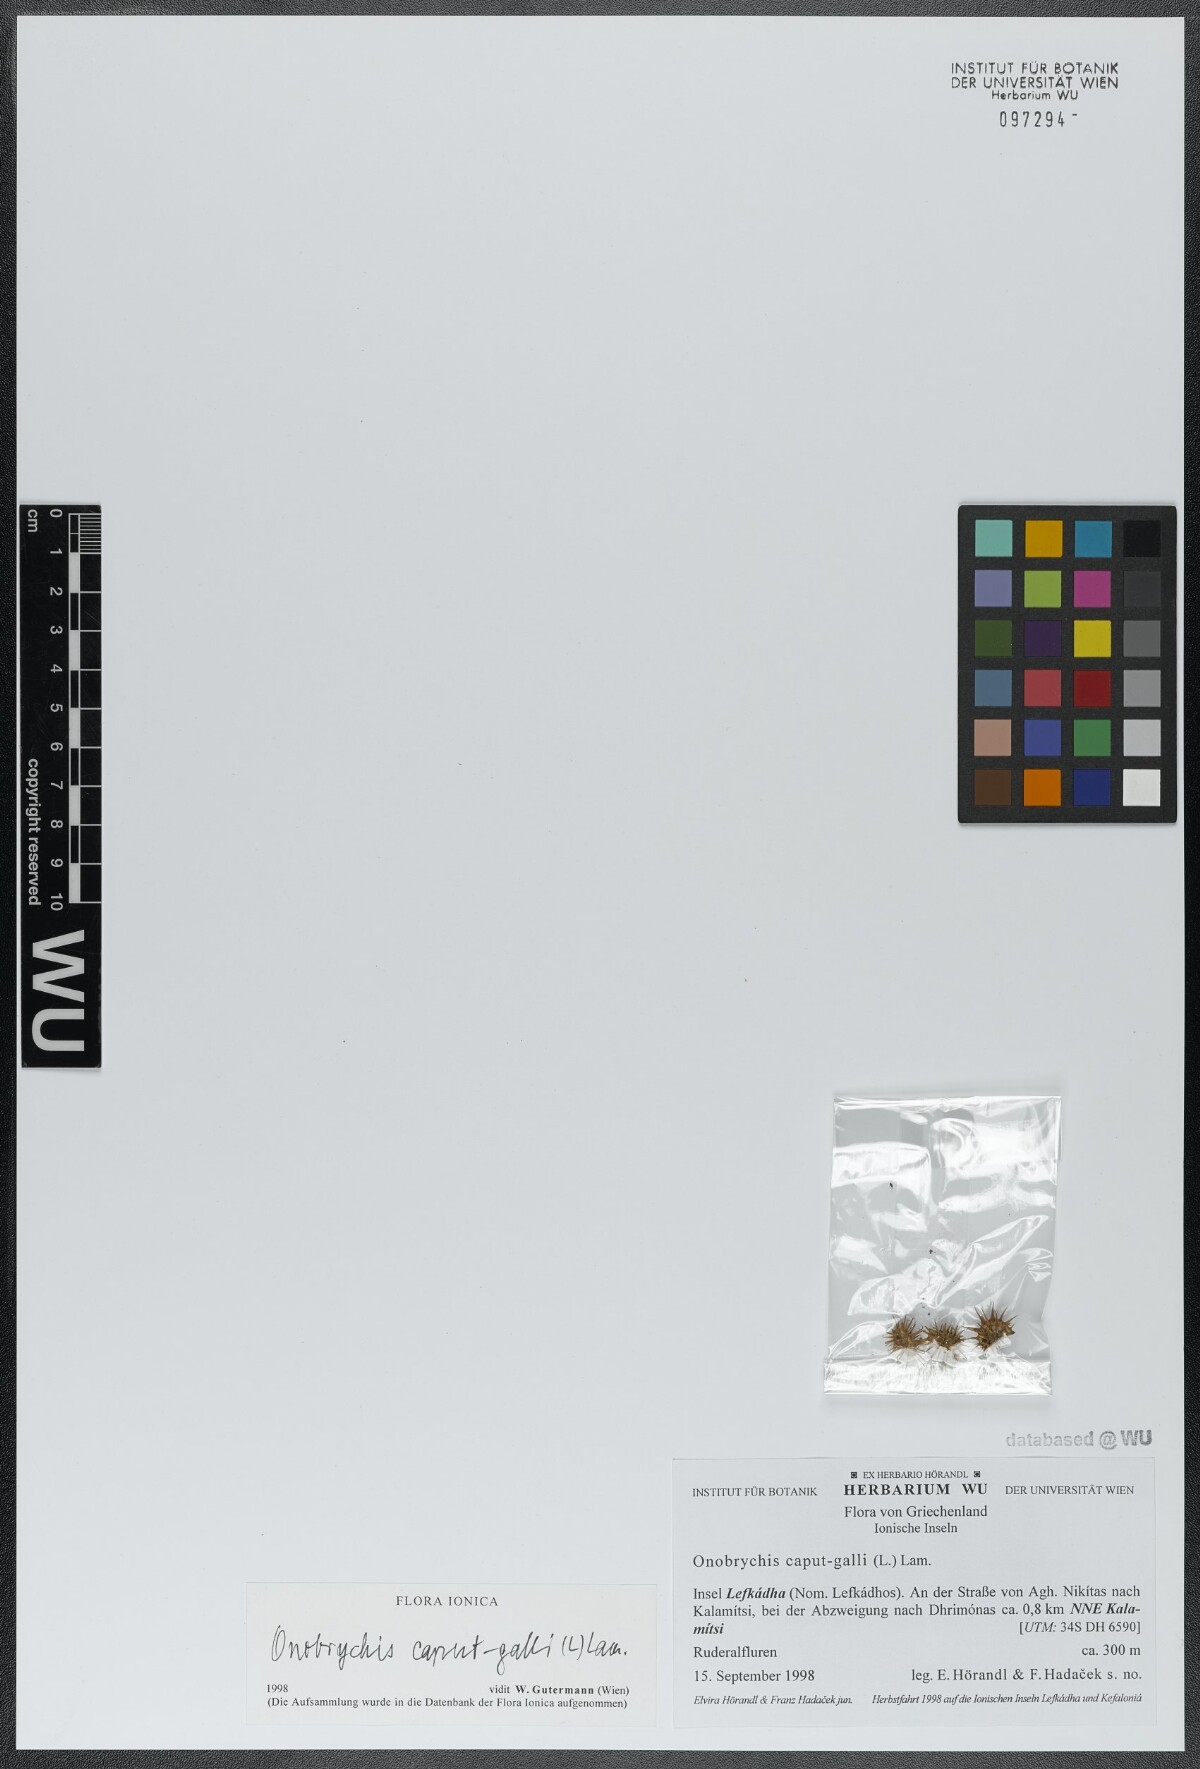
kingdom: Plantae
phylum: Tracheophyta
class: Magnoliopsida
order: Fabales
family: Fabaceae
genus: Onobrychis
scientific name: Onobrychis caput-galli
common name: Cockscomb sainfoin
